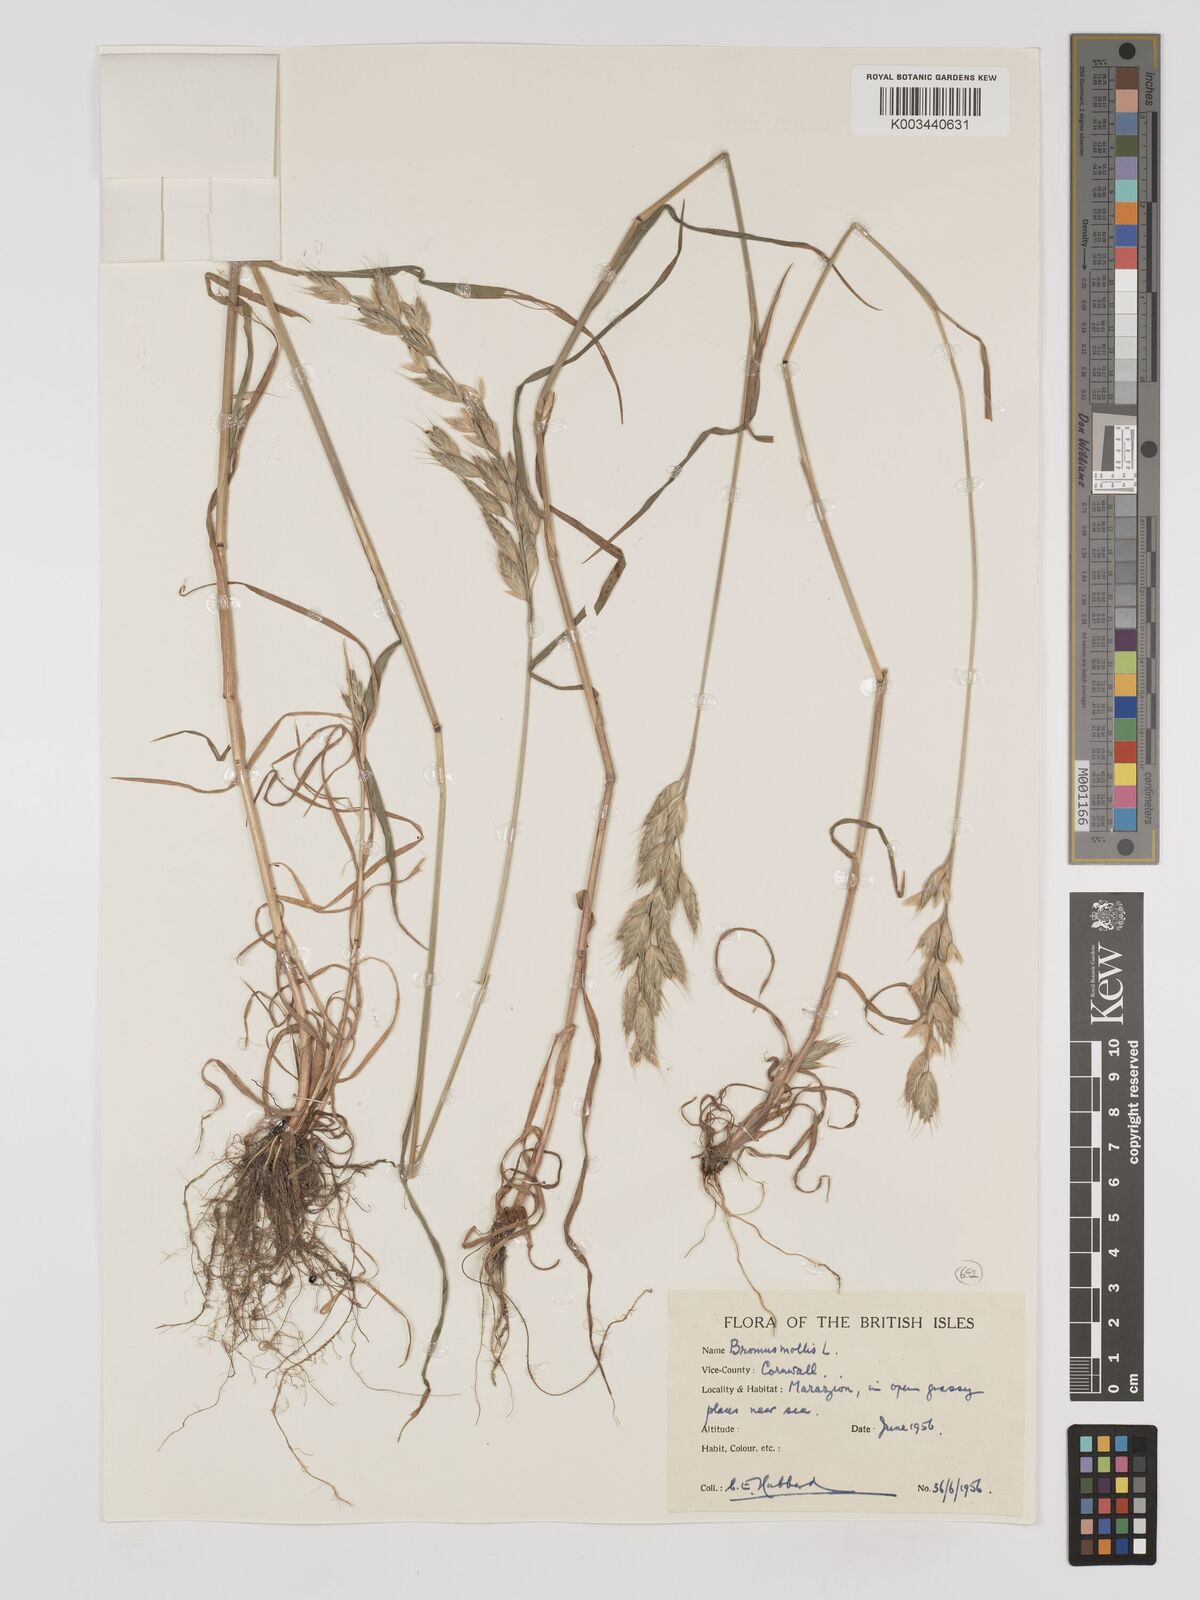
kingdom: Plantae
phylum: Tracheophyta
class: Liliopsida
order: Poales
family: Poaceae
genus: Bromus
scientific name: Bromus hordeaceus
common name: Soft brome
